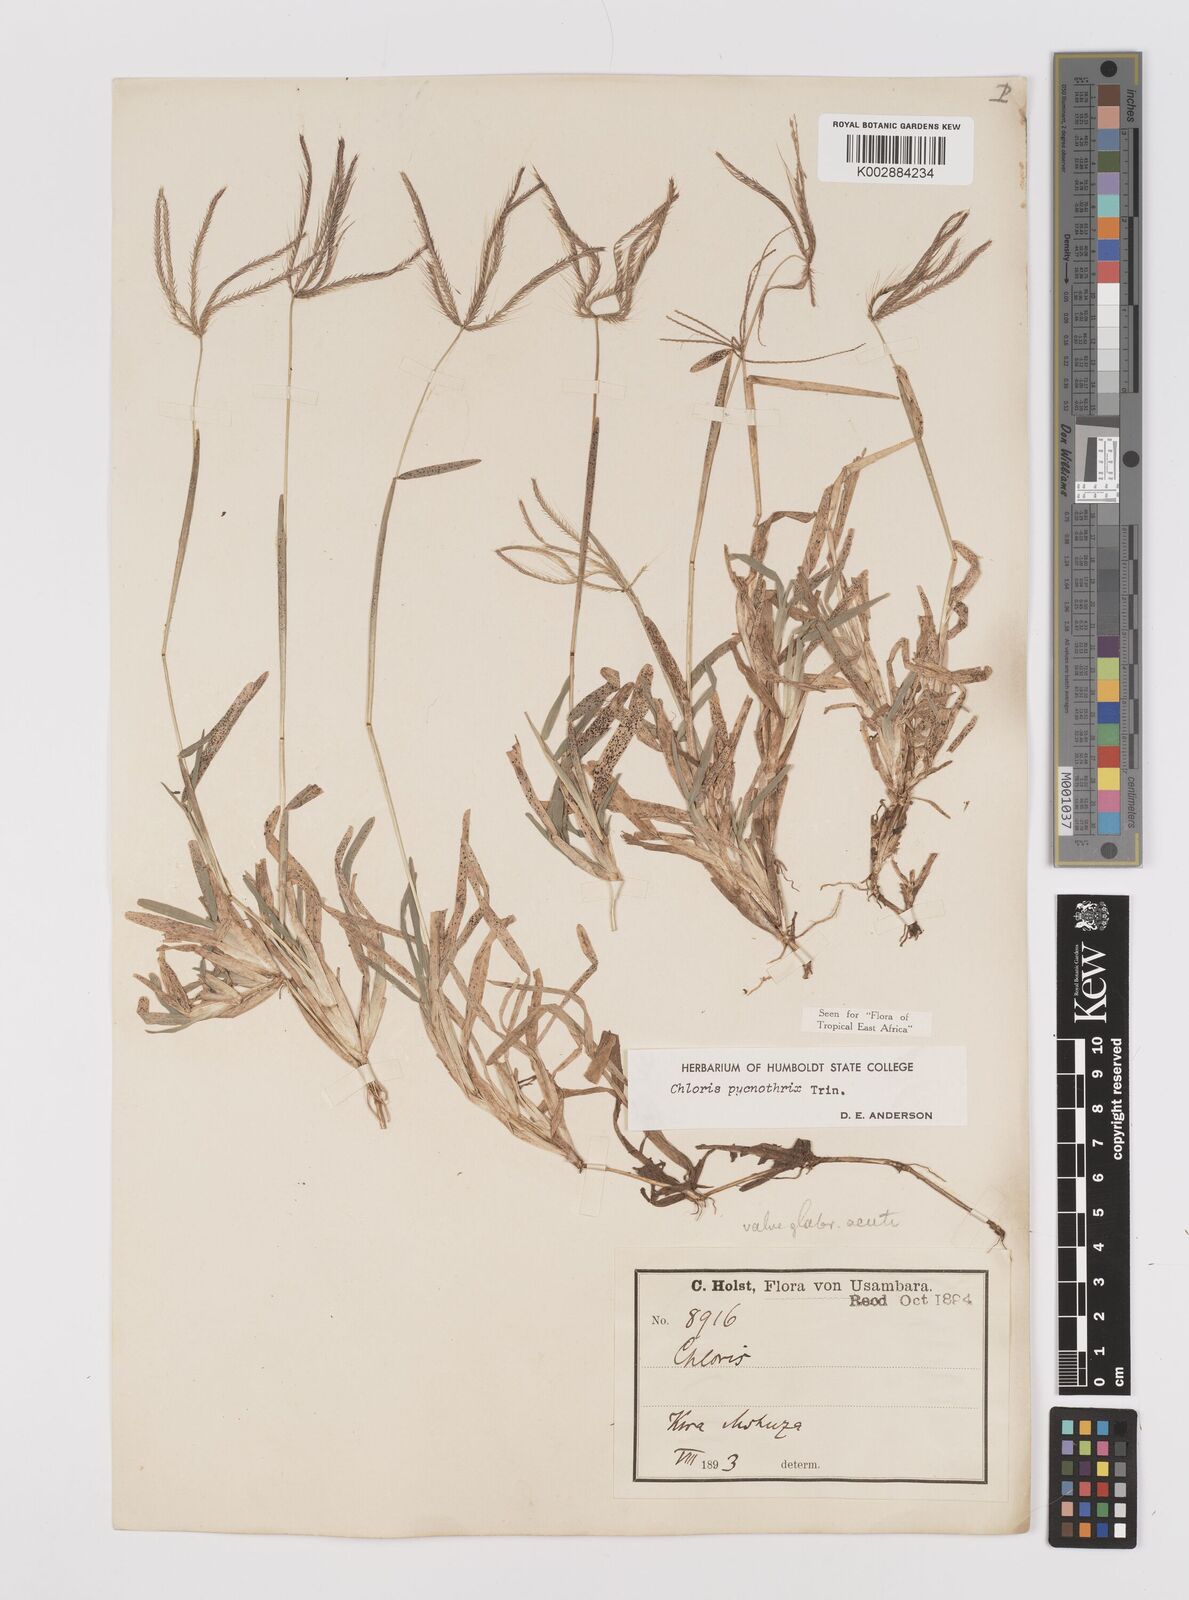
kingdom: Plantae
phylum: Tracheophyta
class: Liliopsida
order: Poales
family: Poaceae
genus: Chloris
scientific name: Chloris pycnothrix
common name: Spiderweb chloris
